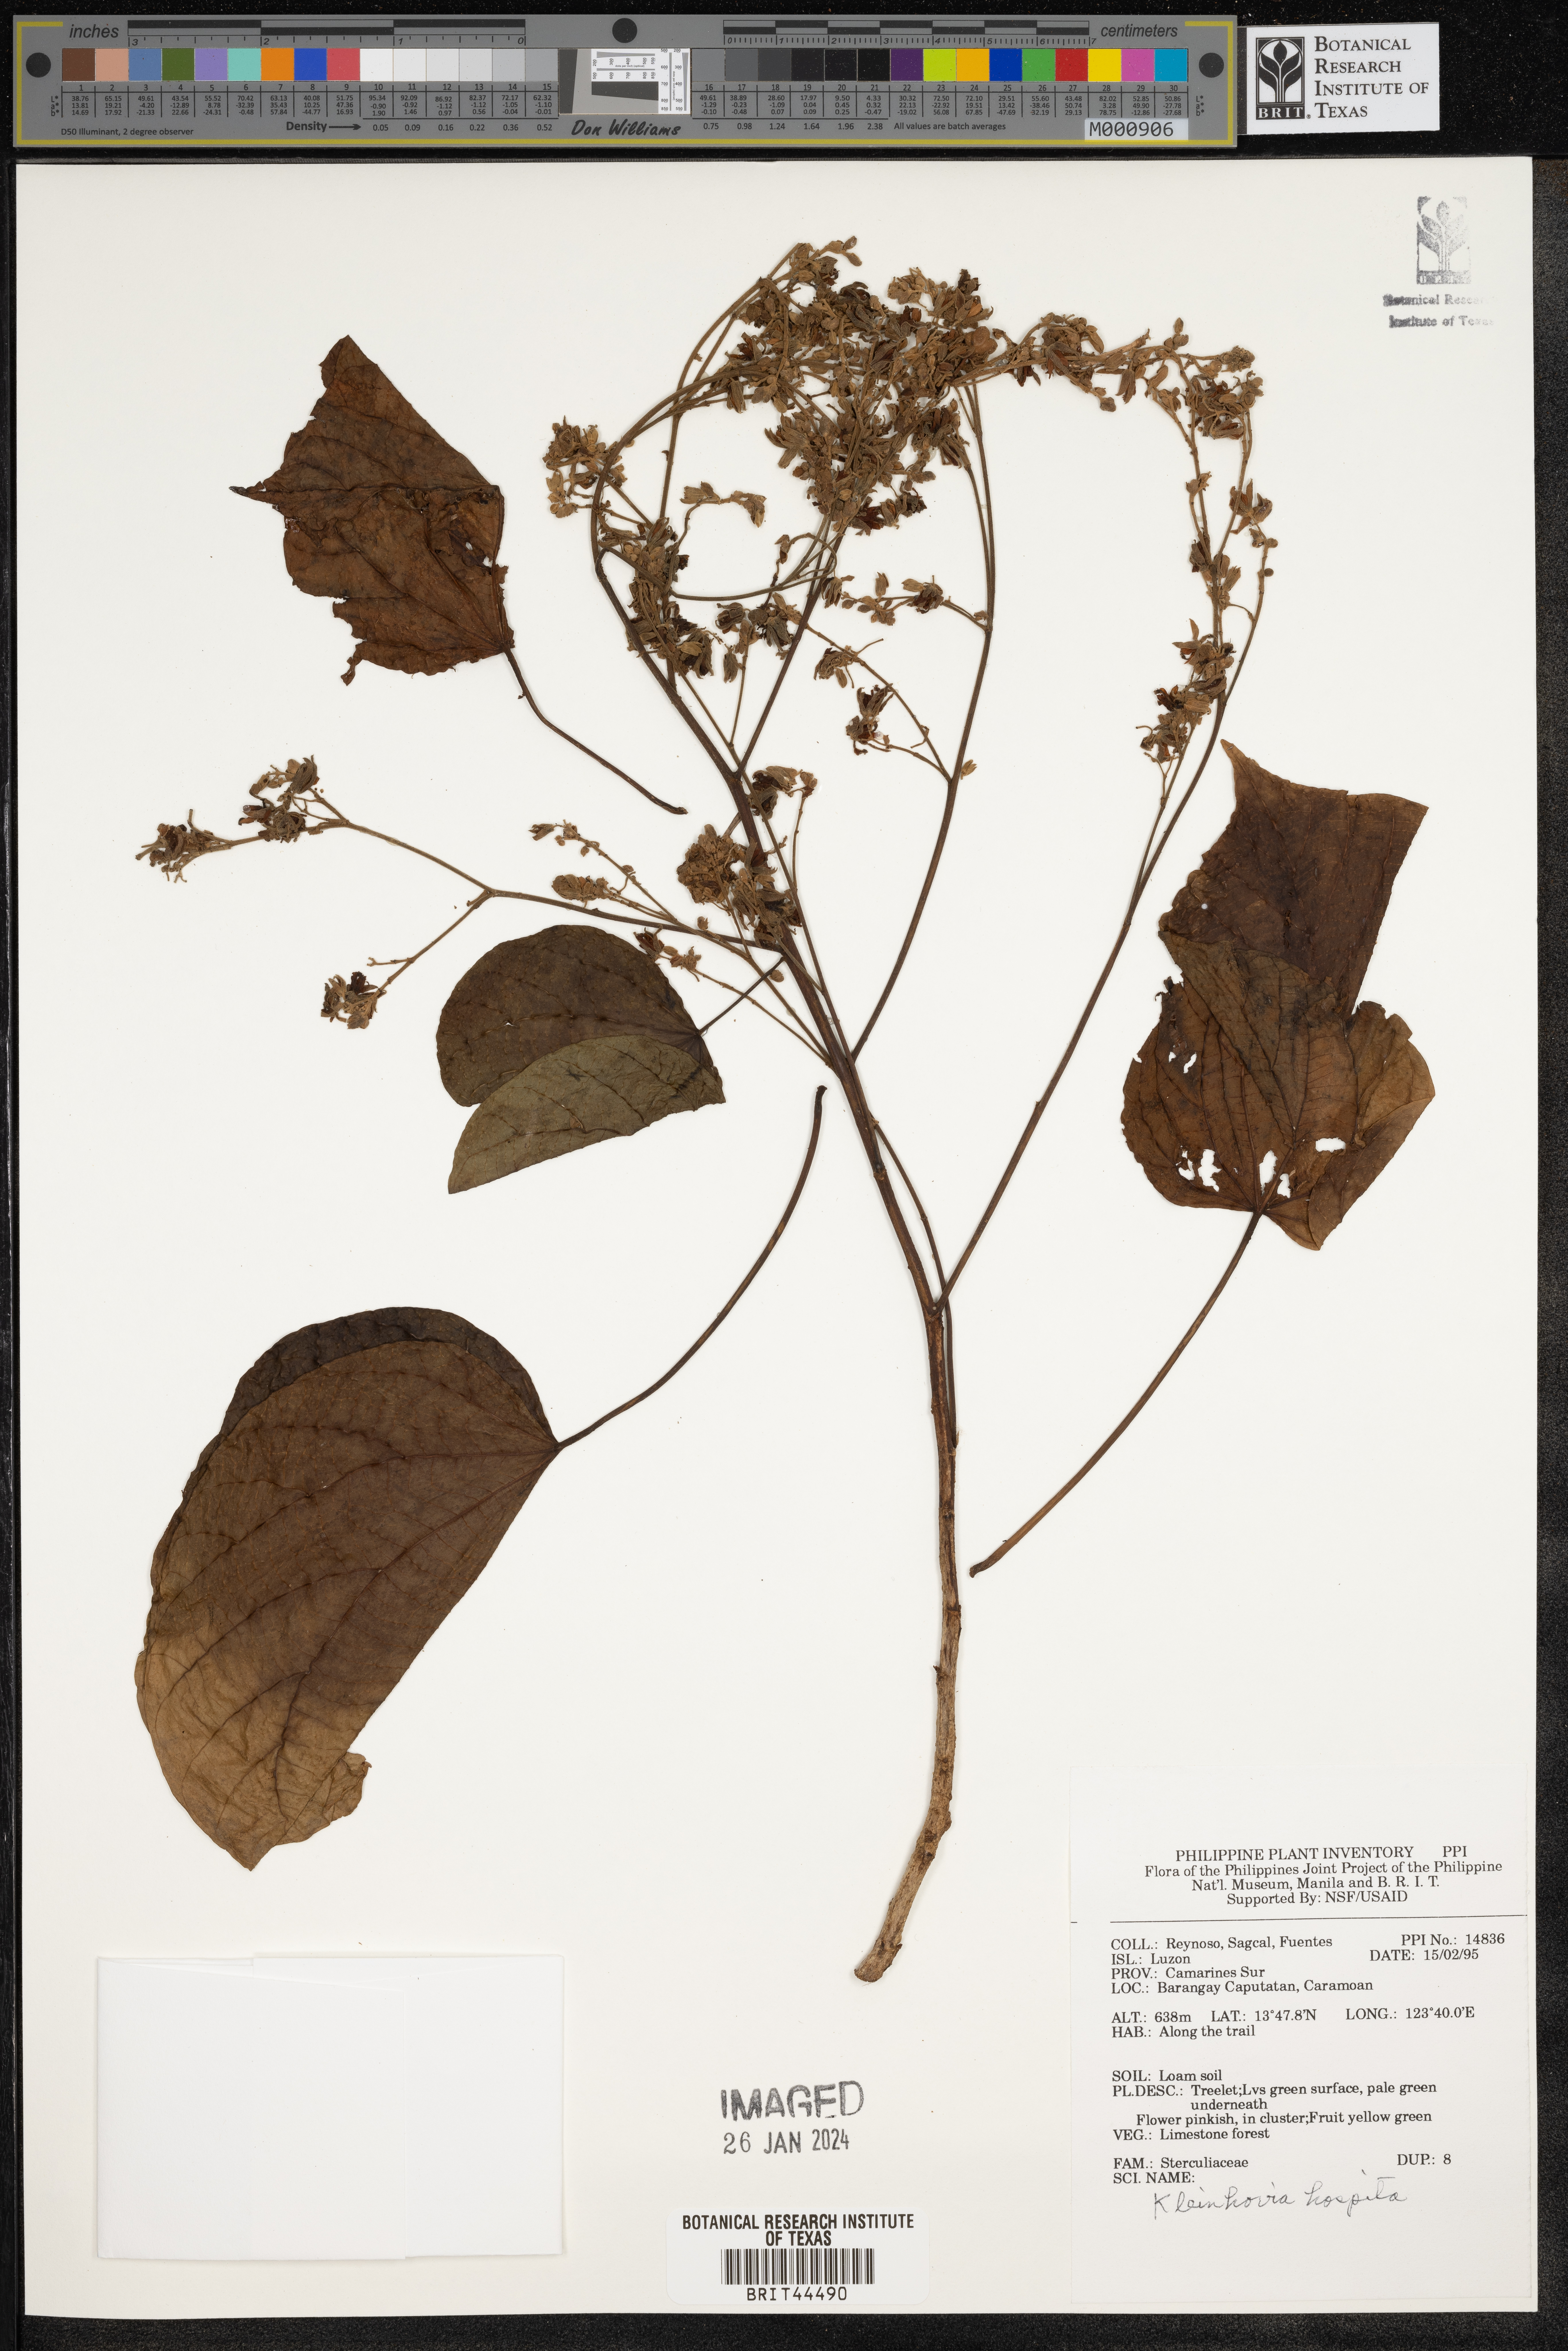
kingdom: Plantae
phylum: Tracheophyta
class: Magnoliopsida
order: Malvales
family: Malvaceae
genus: Kleinhovia
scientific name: Kleinhovia hospita
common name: Guest-tree
